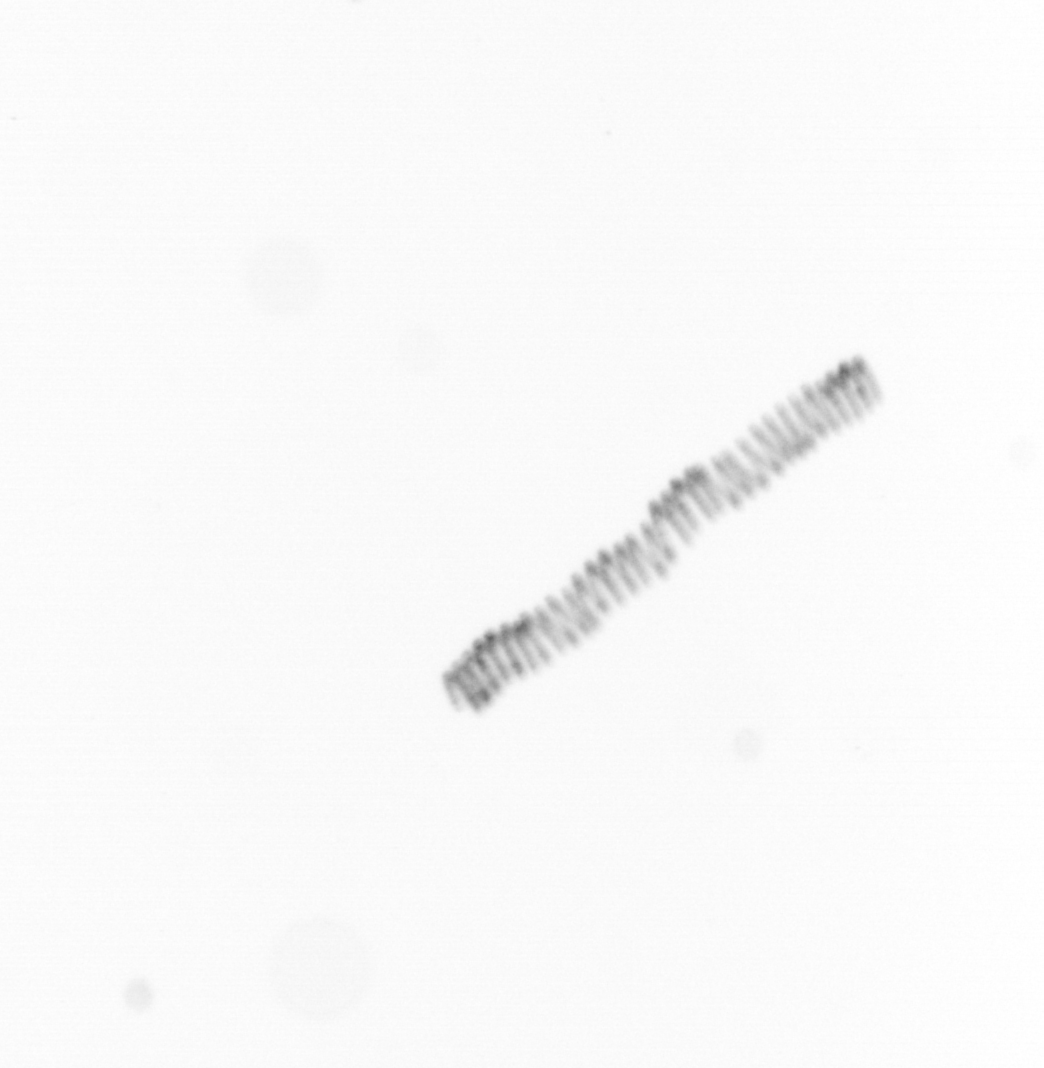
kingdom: Chromista
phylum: Ochrophyta
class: Bacillariophyceae
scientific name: Bacillariophyceae
